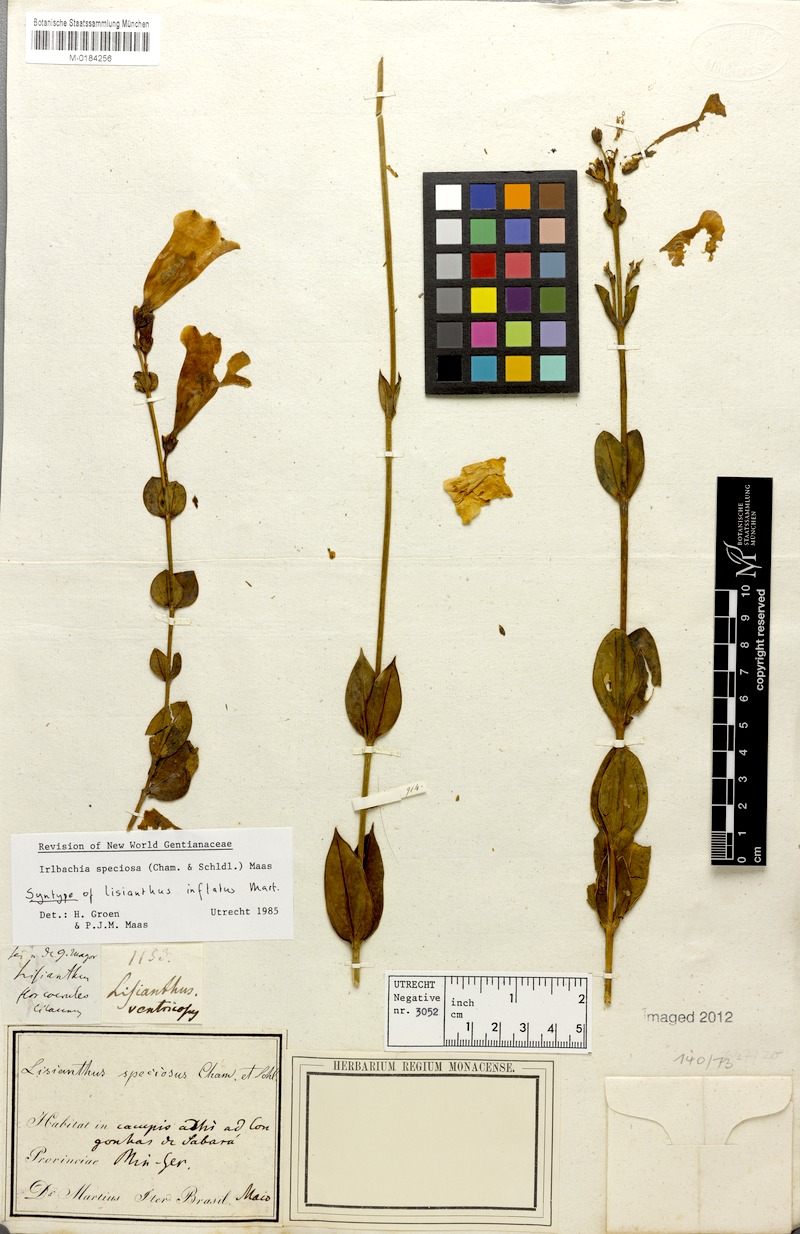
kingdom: Plantae
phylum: Tracheophyta
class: Magnoliopsida
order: Gentianales
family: Gentianaceae
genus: Calolisianthus
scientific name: Calolisianthus speciosus
